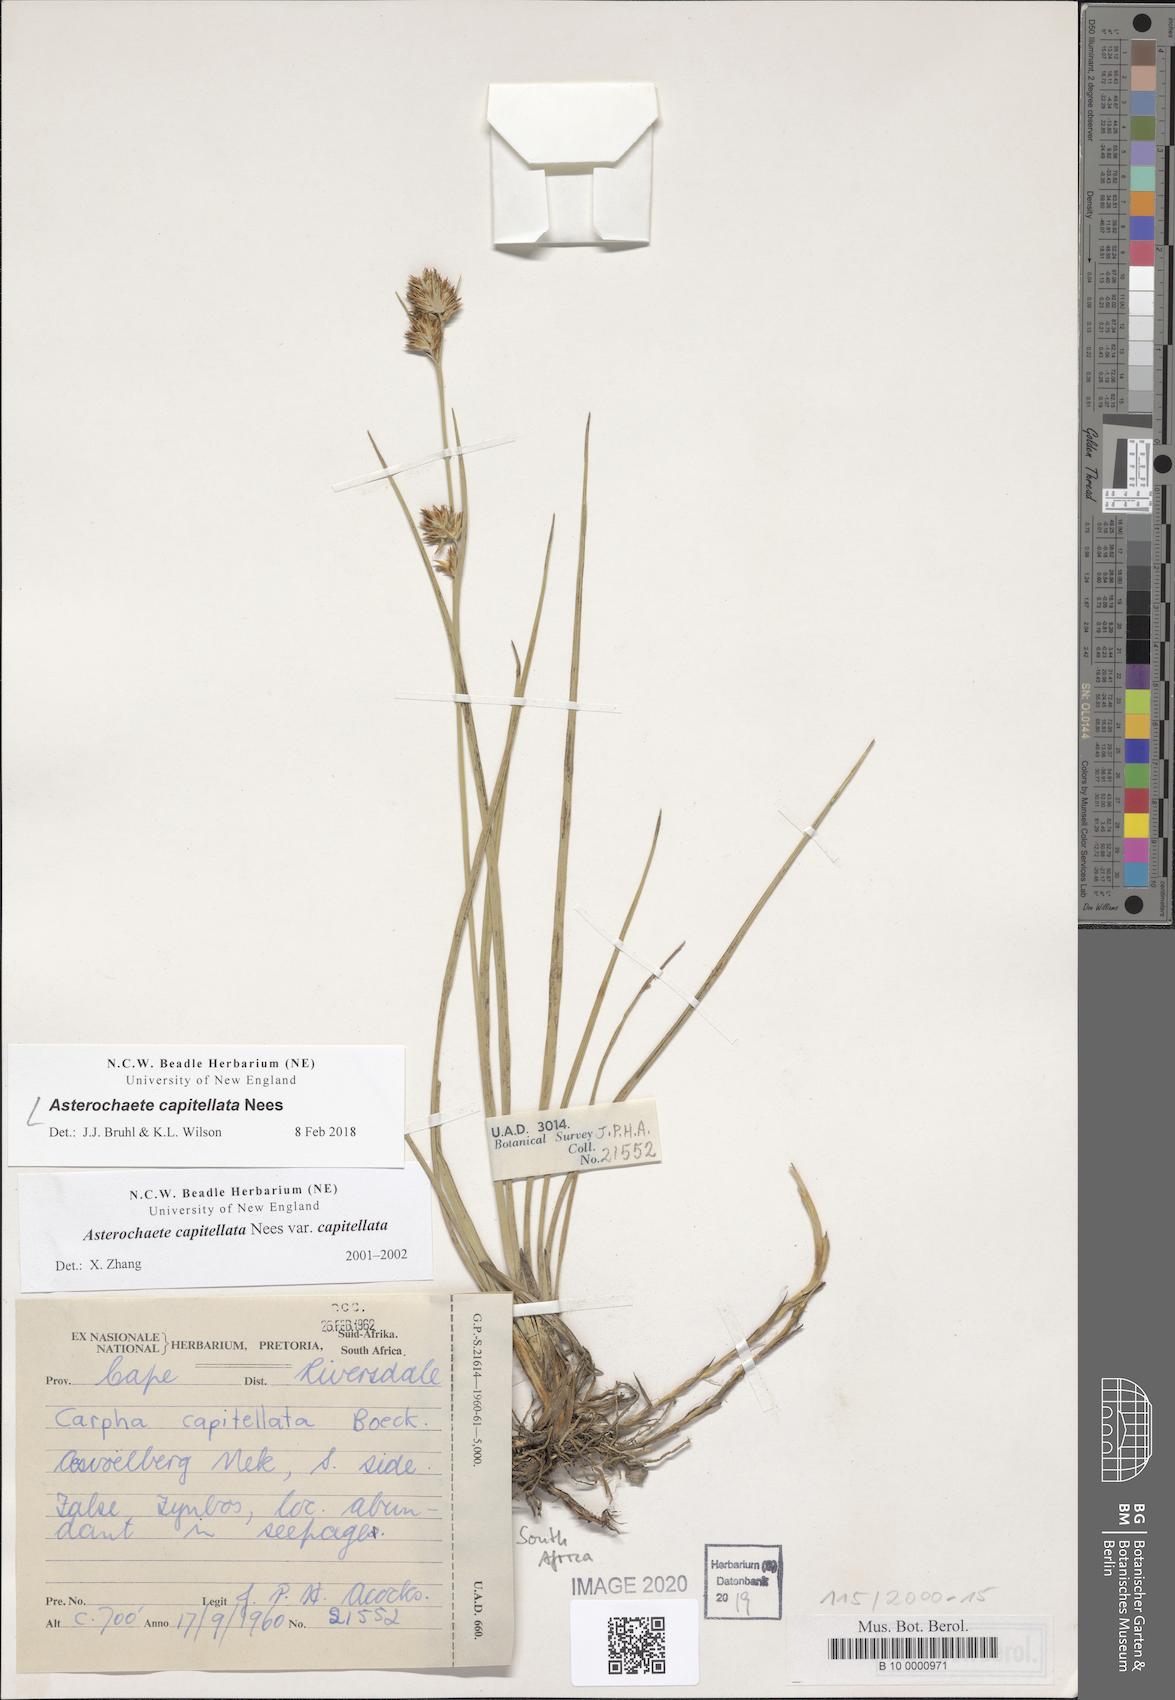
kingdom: Plantae
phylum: Tracheophyta
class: Liliopsida
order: Poales
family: Cyperaceae
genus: Carpha
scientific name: Carpha capitellata
